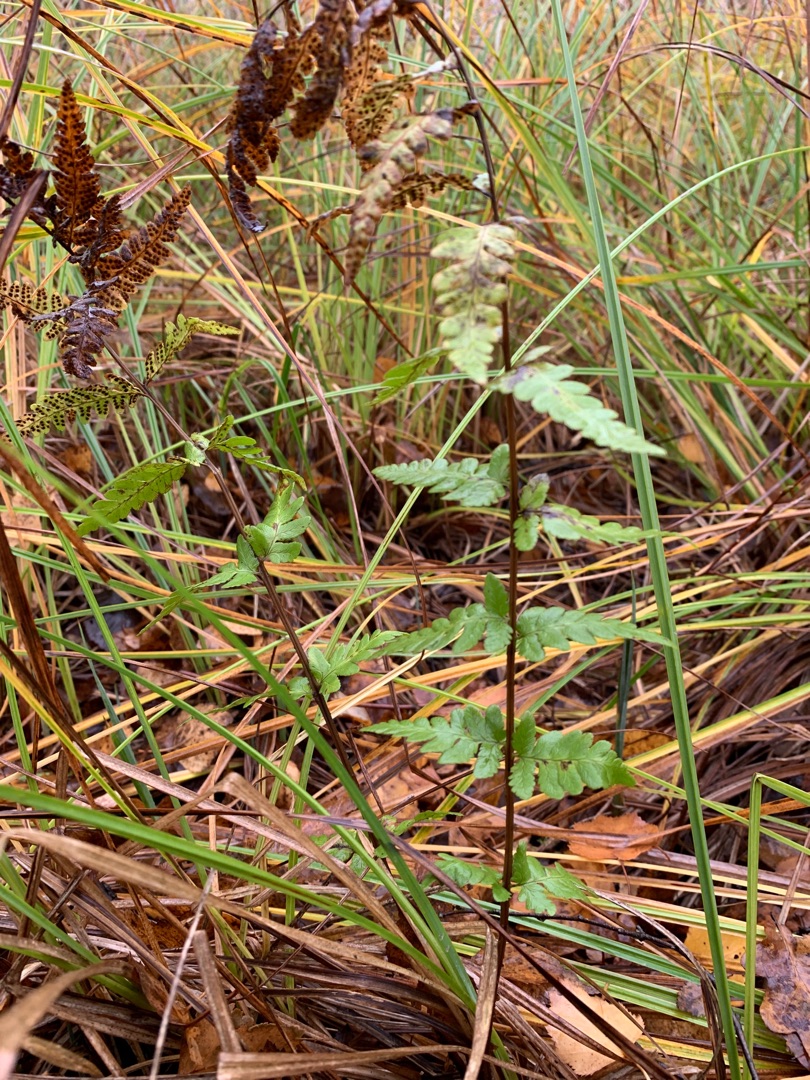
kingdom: Plantae
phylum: Tracheophyta
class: Polypodiopsida
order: Polypodiales
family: Dryopteridaceae
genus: Dryopteris
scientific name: Dryopteris cristata
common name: Butfinnet mangeløv
